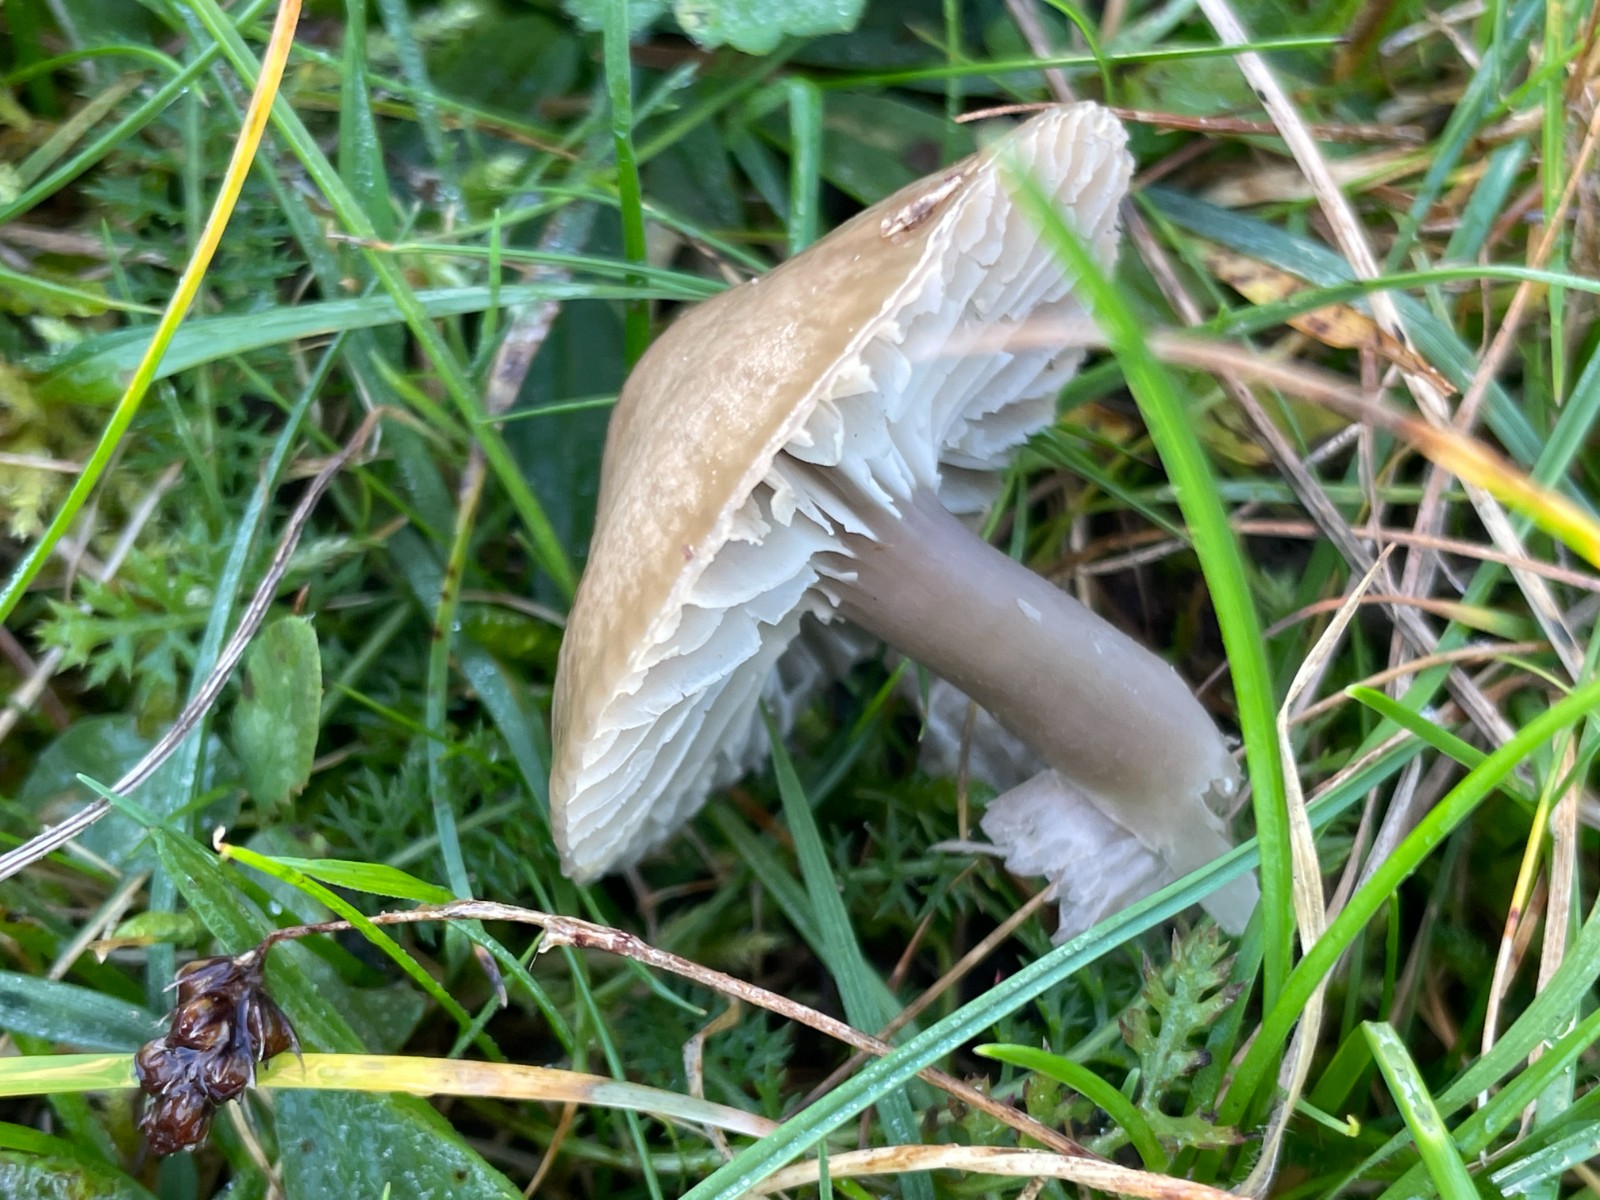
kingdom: Fungi
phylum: Basidiomycota
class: Agaricomycetes
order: Agaricales
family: Hygrophoraceae
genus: Gliophorus
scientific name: Gliophorus irrigatus
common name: slimet vokshat
